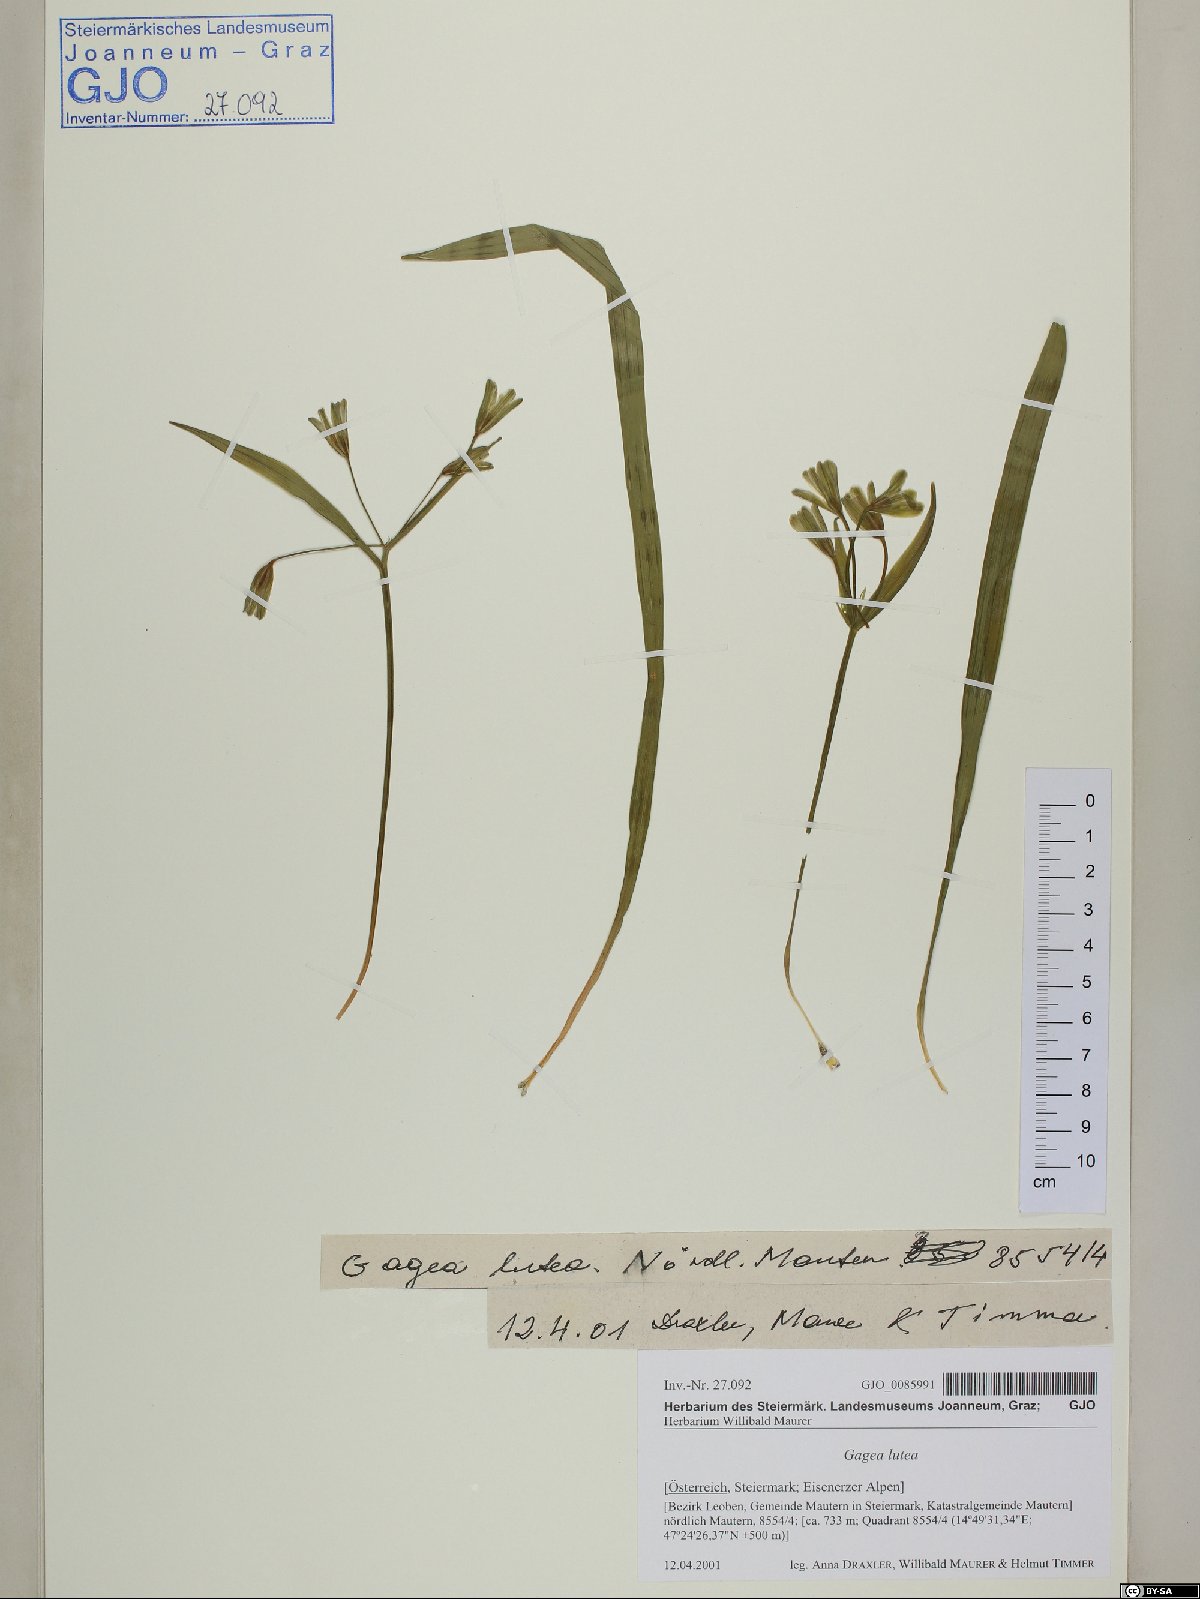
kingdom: Plantae
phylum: Tracheophyta
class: Liliopsida
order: Liliales
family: Liliaceae
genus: Gagea
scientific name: Gagea lutea
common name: Yellow star-of-bethlehem
